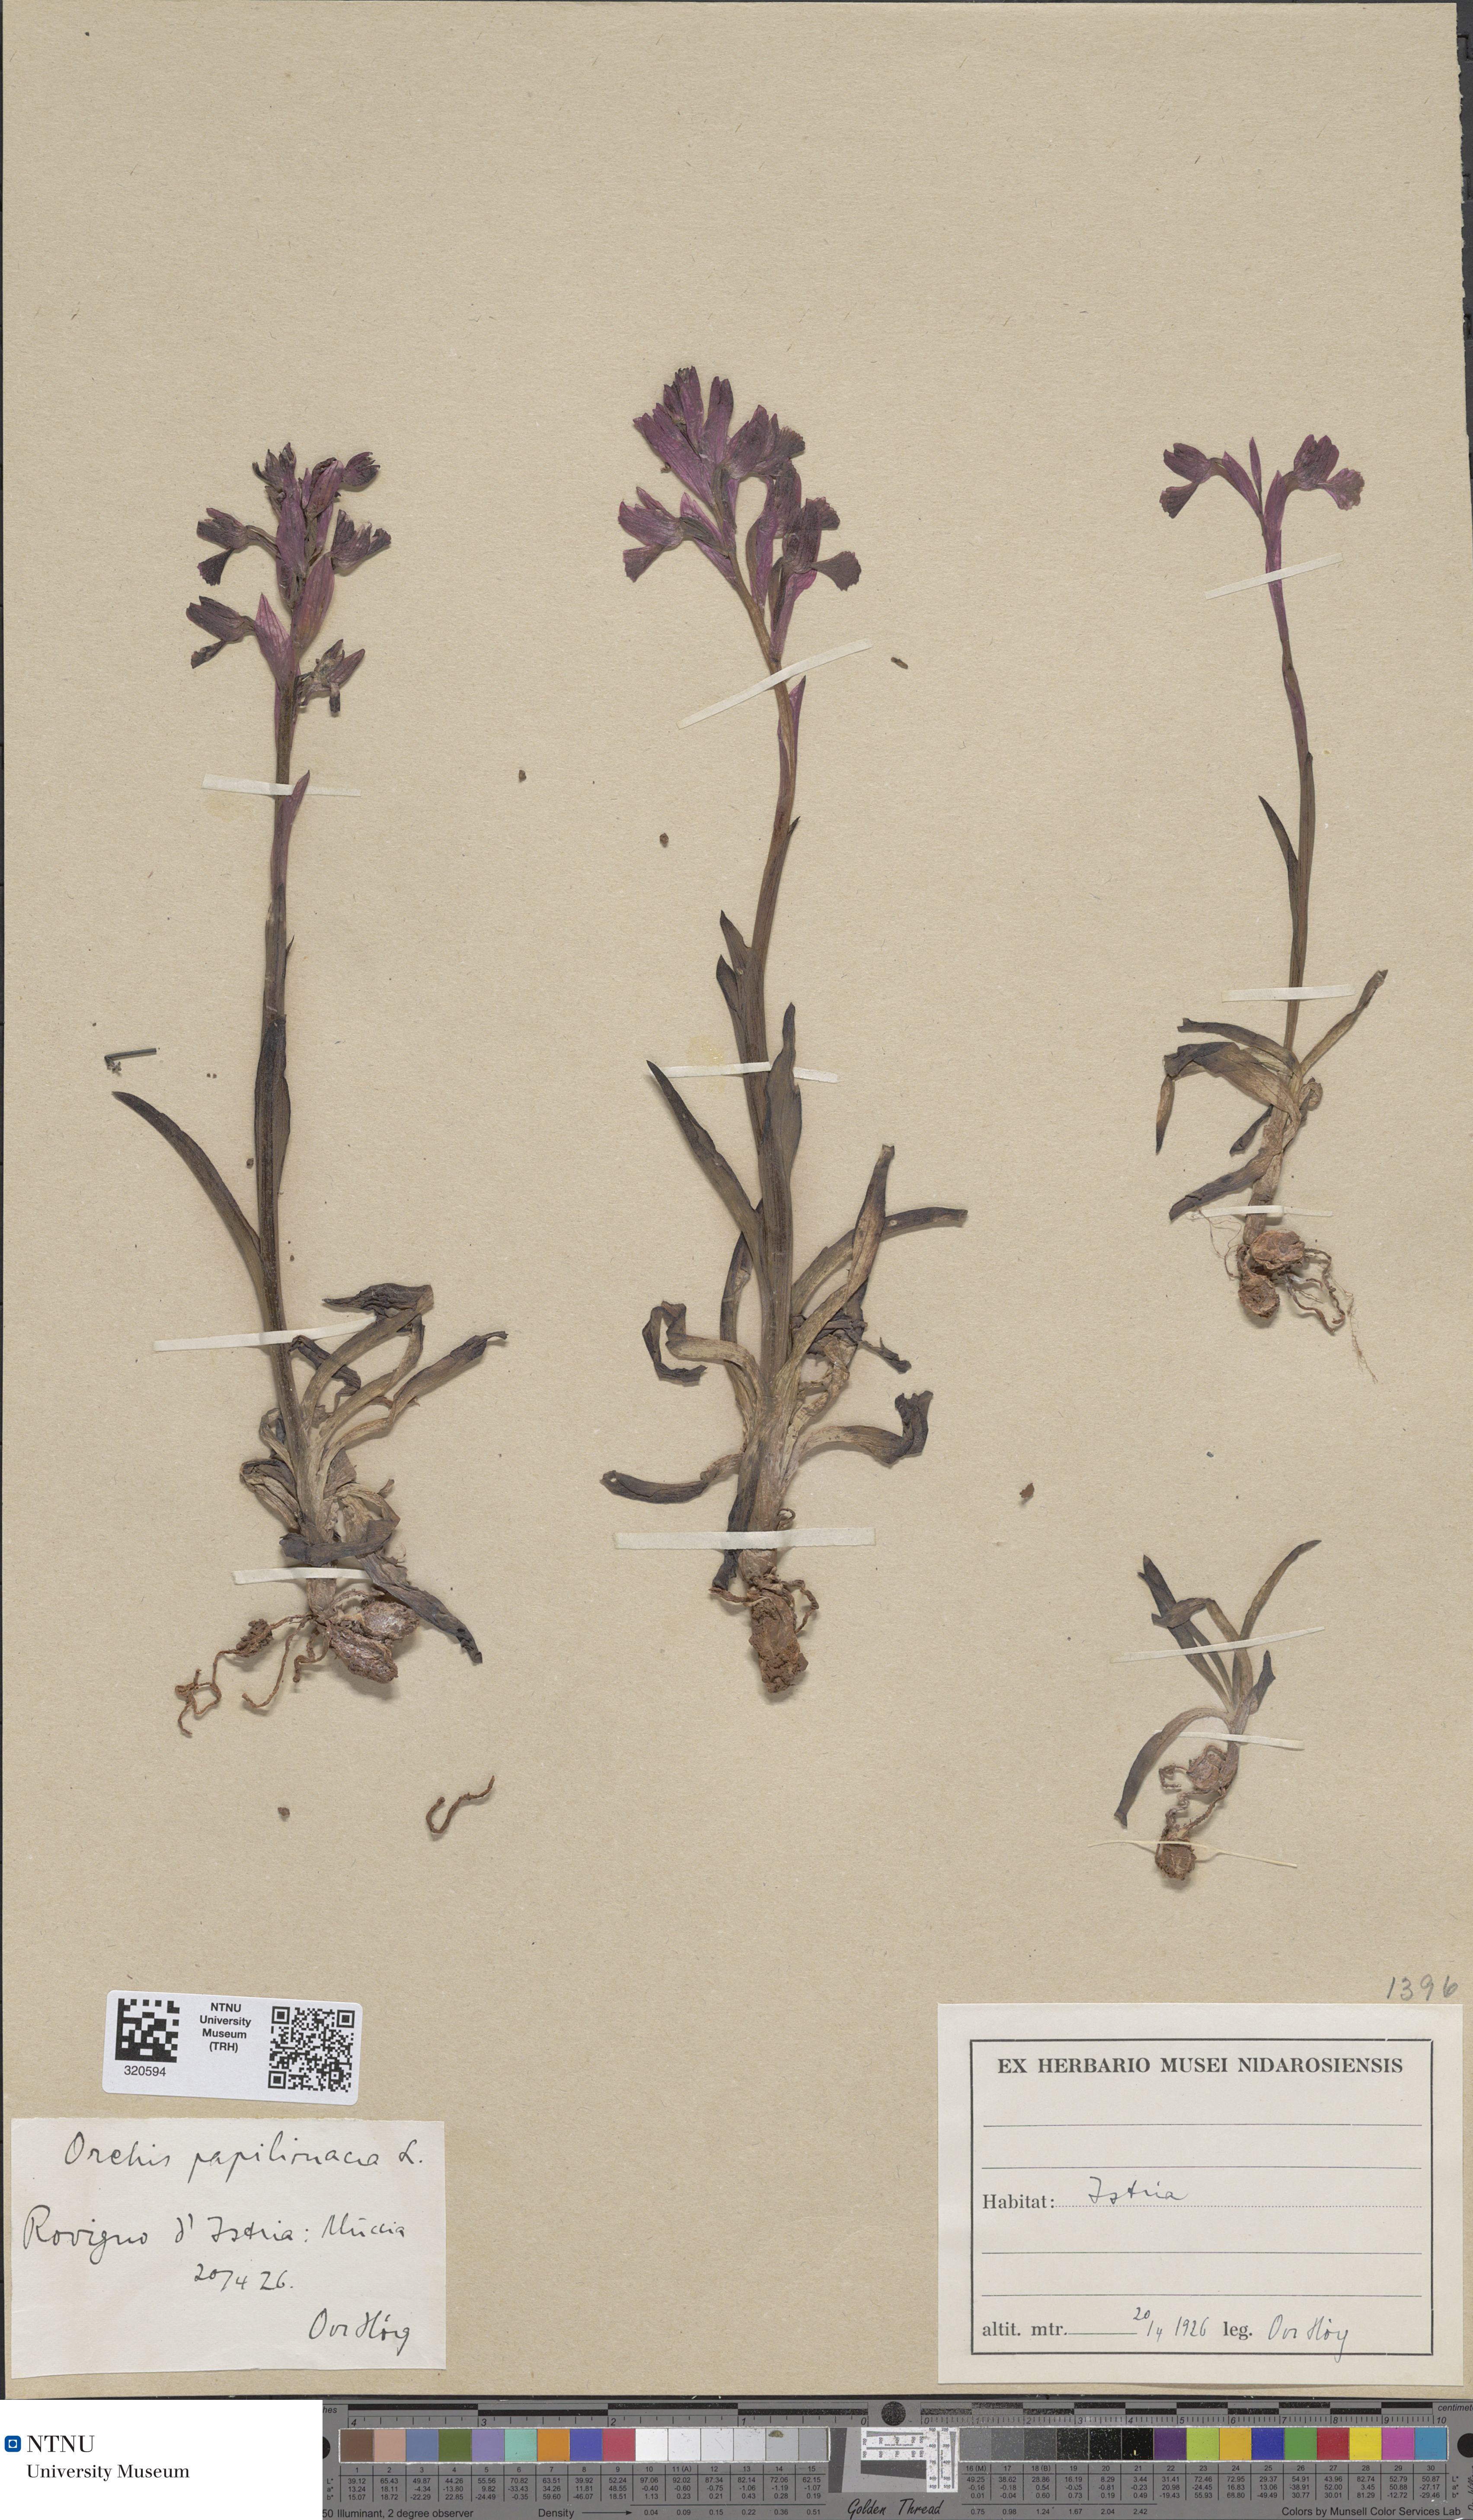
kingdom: Plantae
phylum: Tracheophyta
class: Liliopsida
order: Asparagales
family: Orchidaceae
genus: Anacamptis
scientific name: Anacamptis papilionacea
